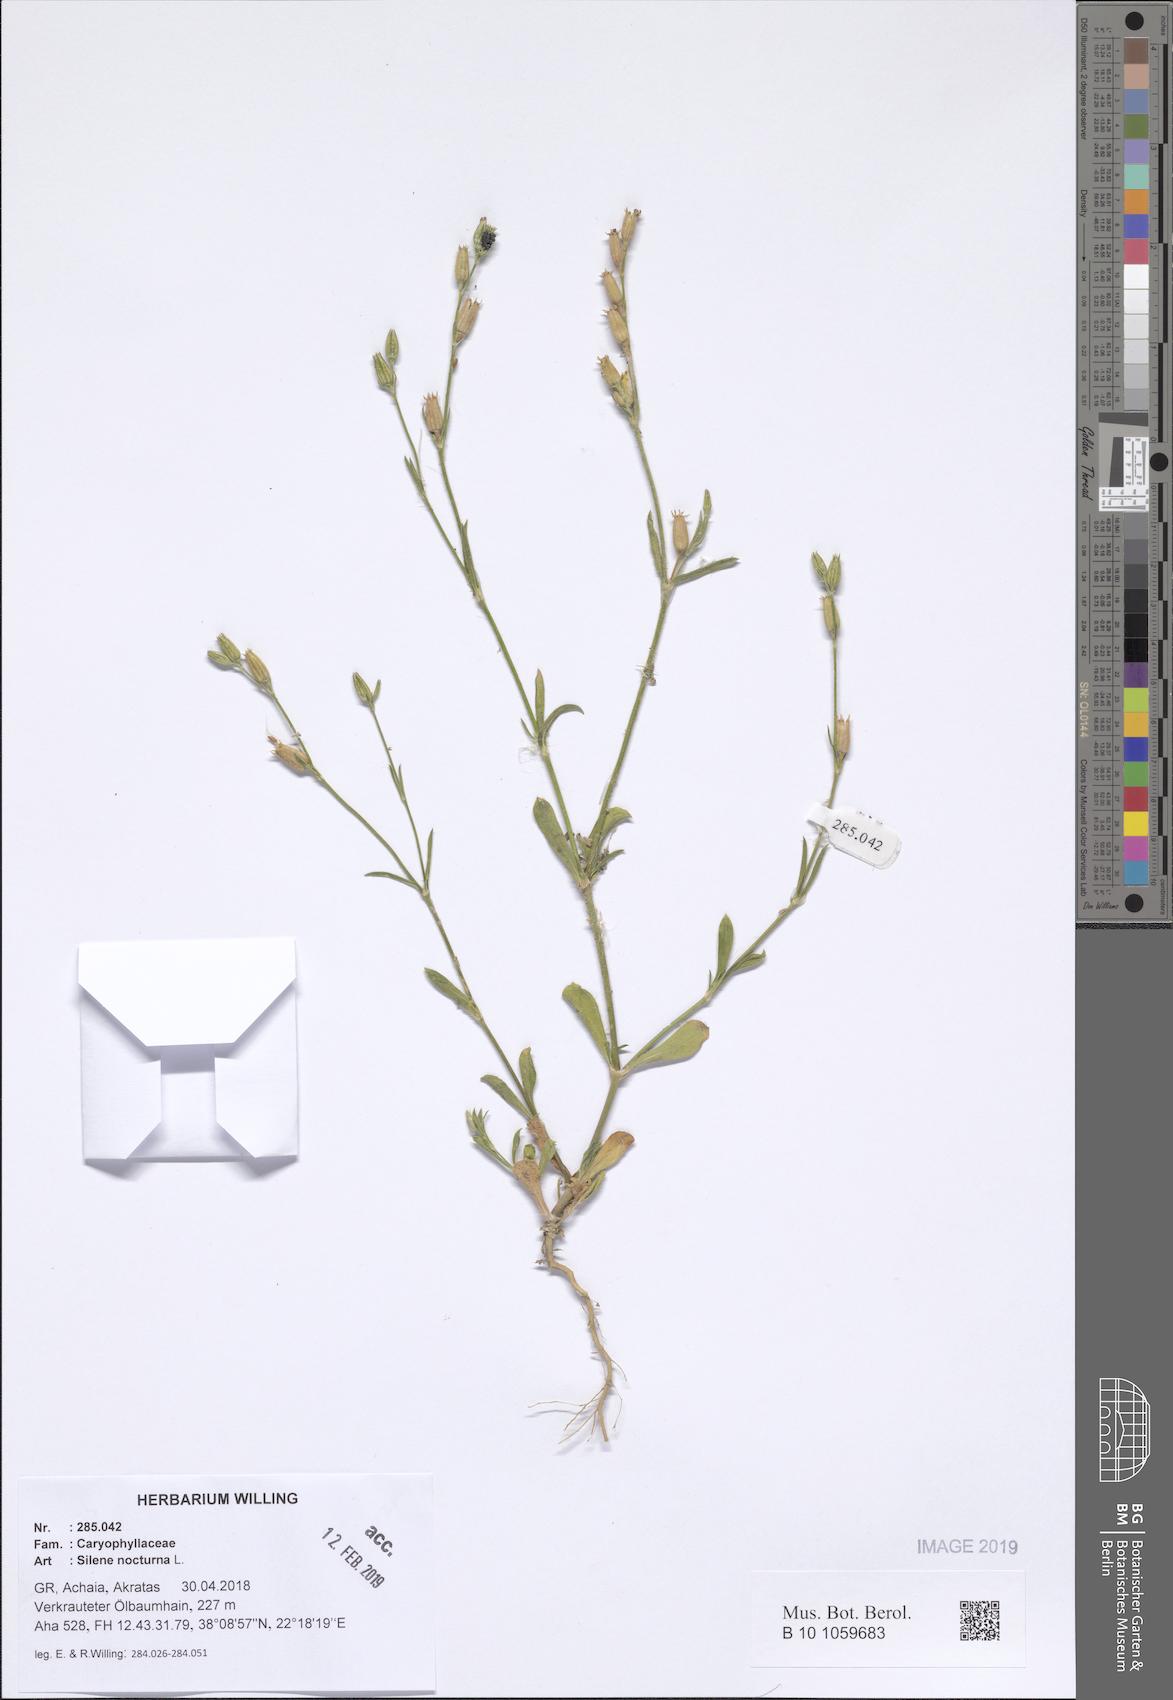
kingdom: Plantae
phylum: Tracheophyta
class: Magnoliopsida
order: Caryophyllales
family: Caryophyllaceae
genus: Silene
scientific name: Silene nocturna
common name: Mediterranean catchfly
